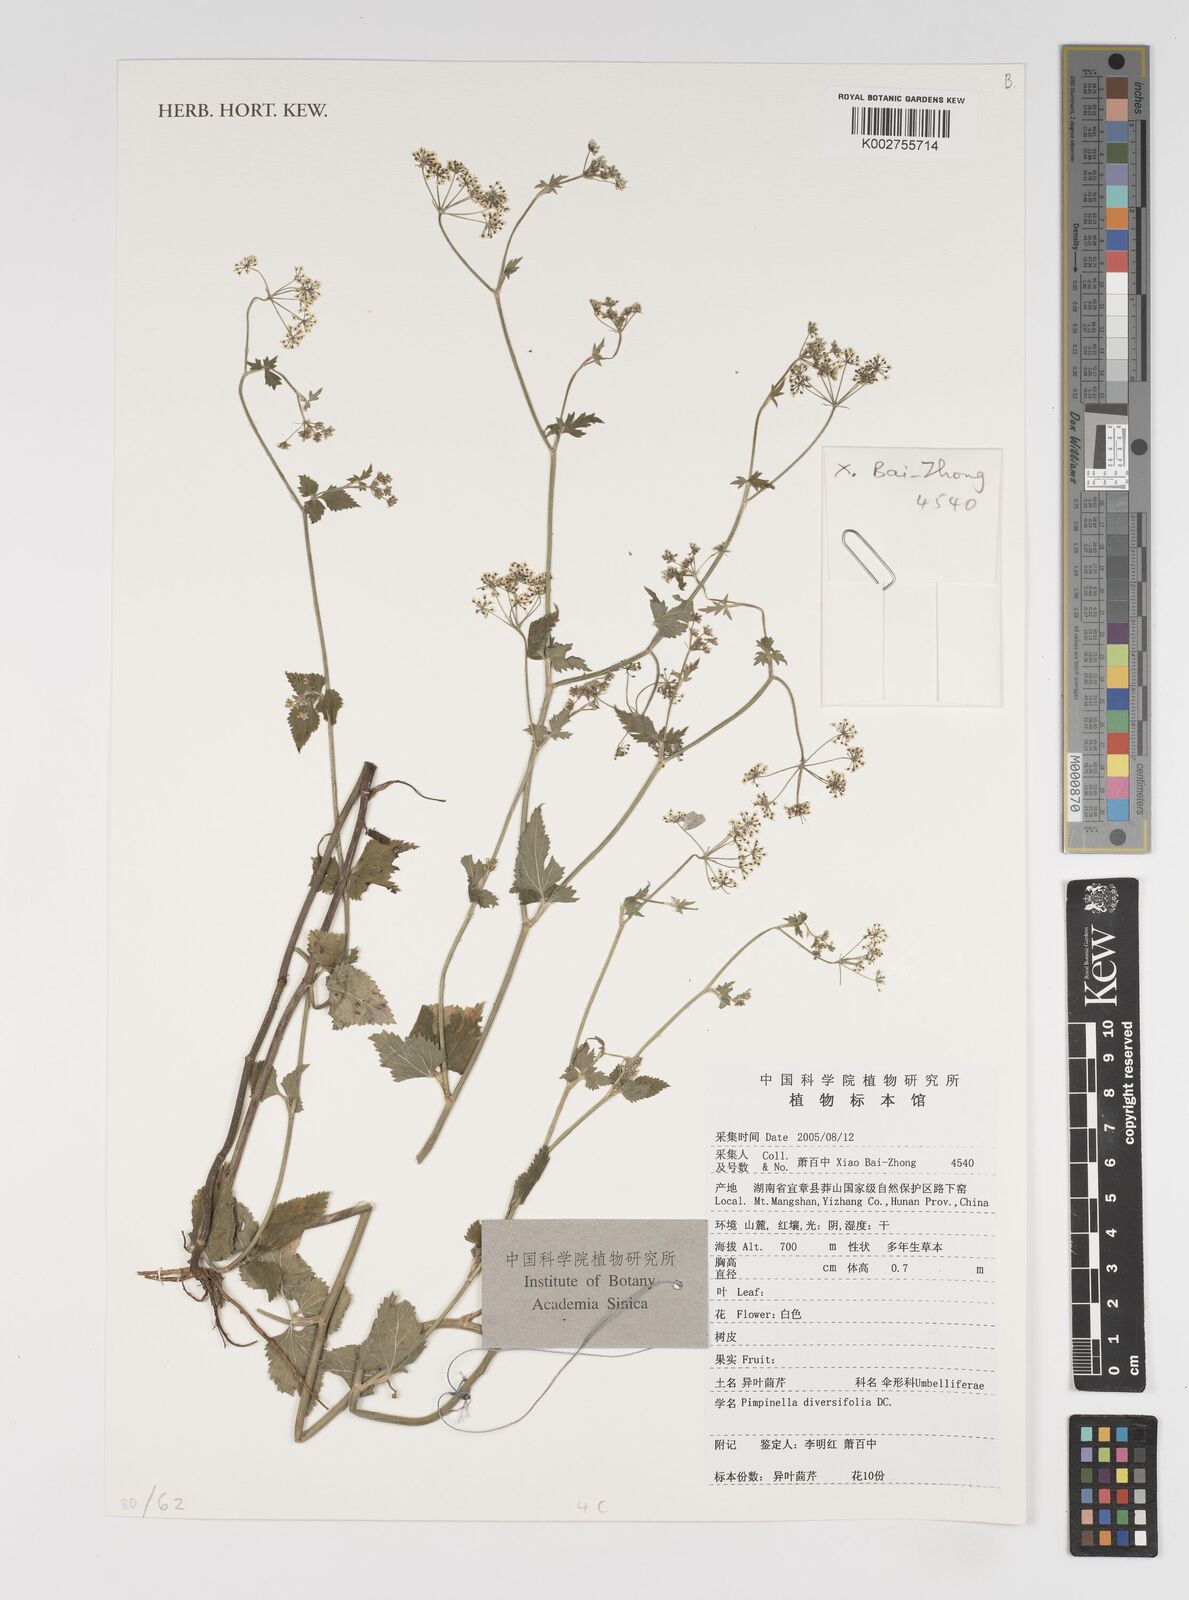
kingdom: Plantae
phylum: Tracheophyta
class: Magnoliopsida
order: Apiales
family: Apiaceae
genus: Pimpinella
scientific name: Pimpinella diversifolia
